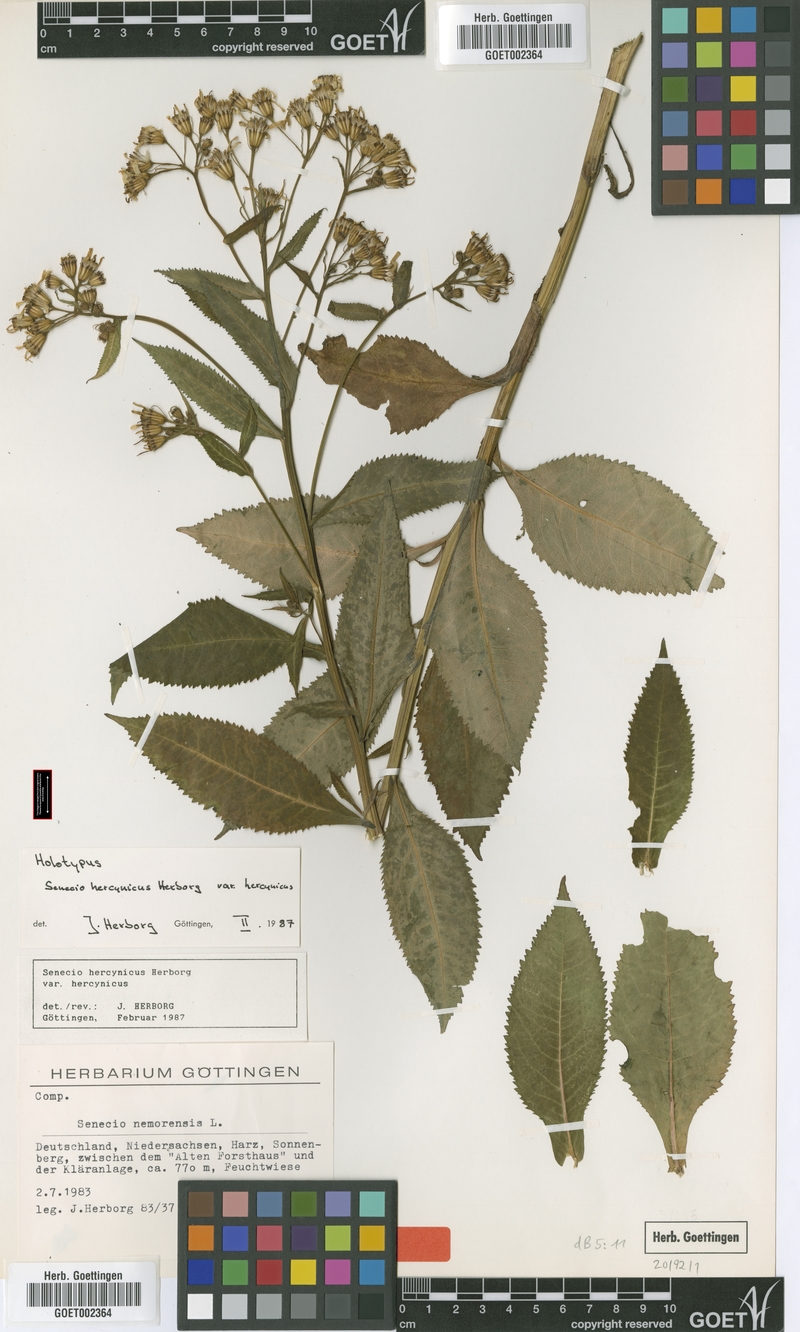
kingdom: Plantae
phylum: Tracheophyta
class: Magnoliopsida
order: Asterales
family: Asteraceae
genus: Senecio
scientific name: Senecio hercynicus
